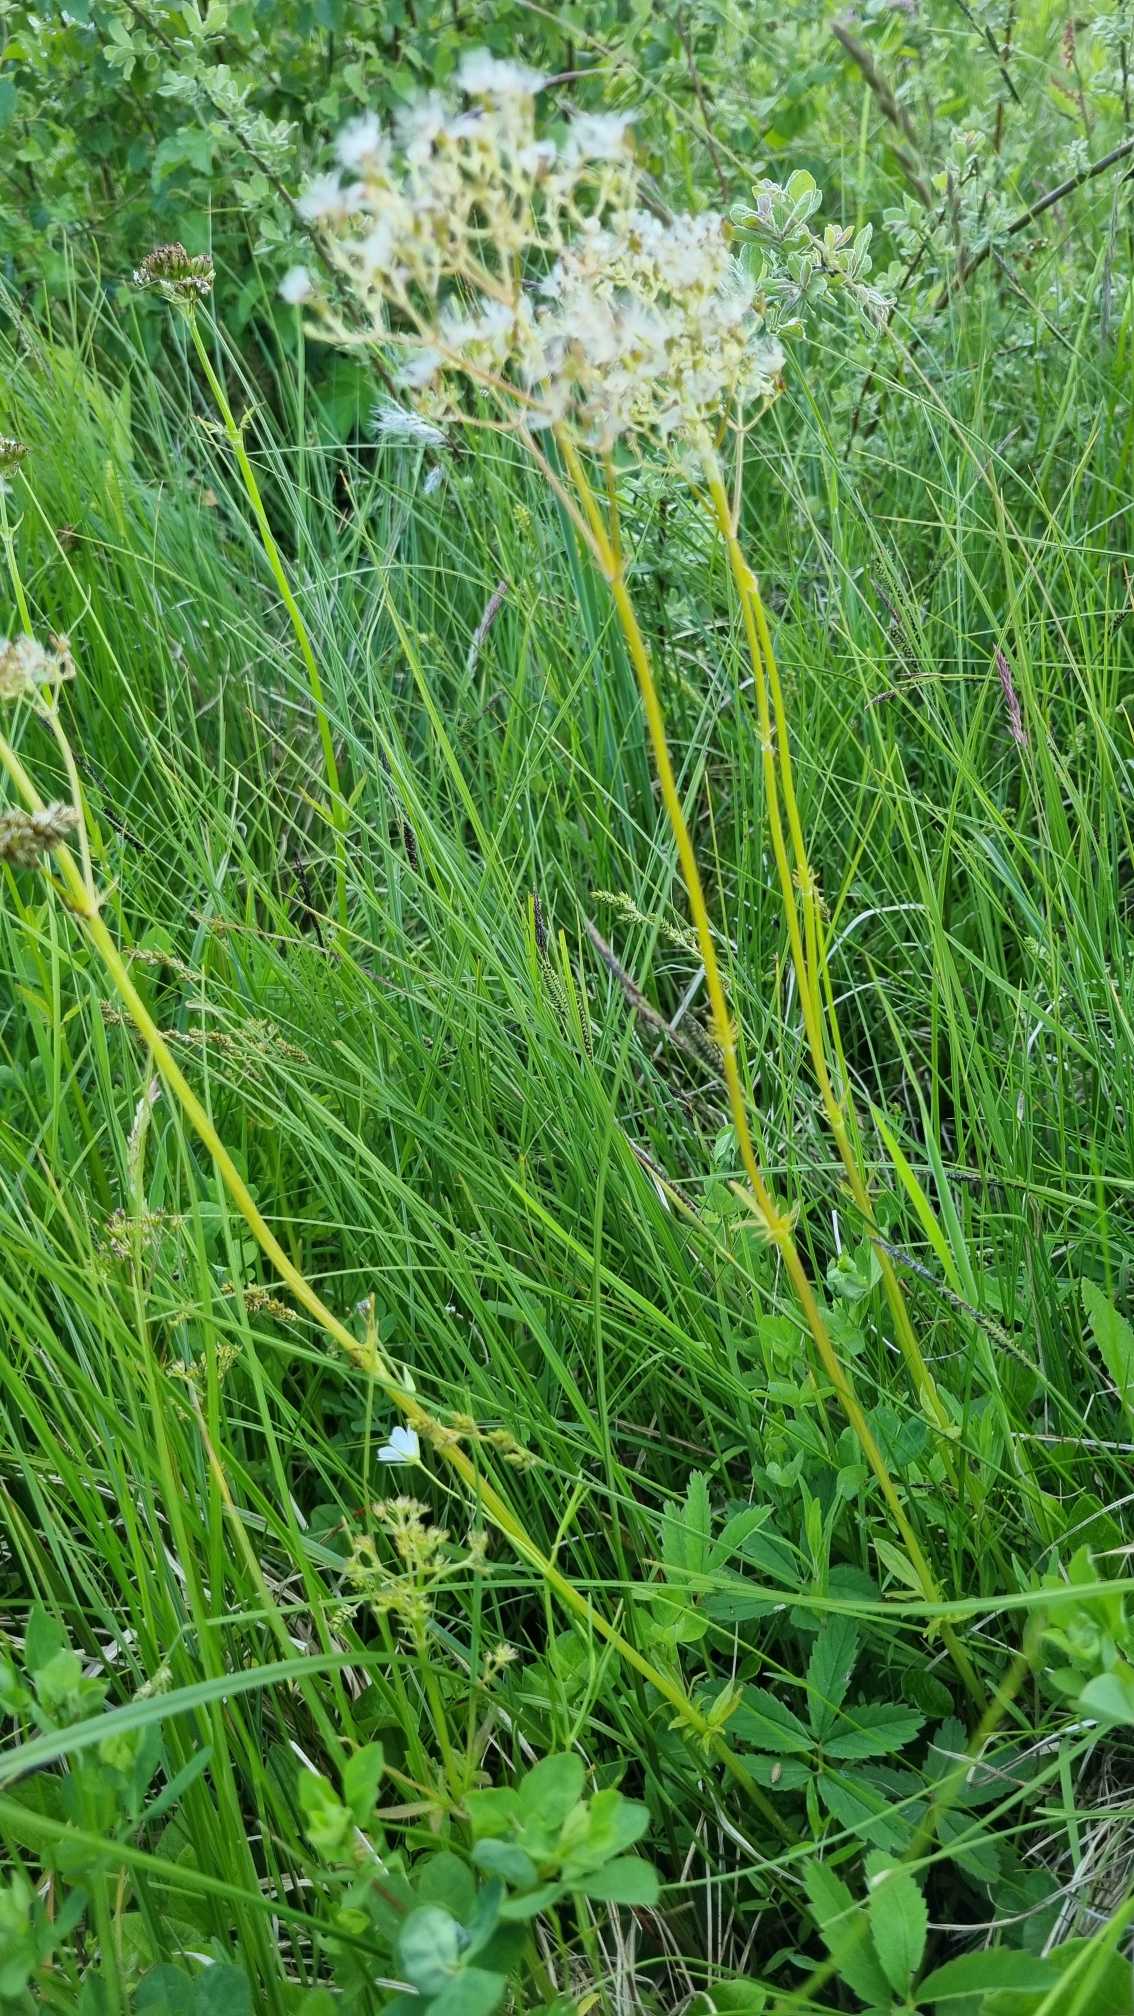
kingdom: Plantae
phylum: Tracheophyta
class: Magnoliopsida
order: Dipsacales
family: Caprifoliaceae
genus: Valeriana
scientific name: Valeriana dioica
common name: Tvebo baldrian
